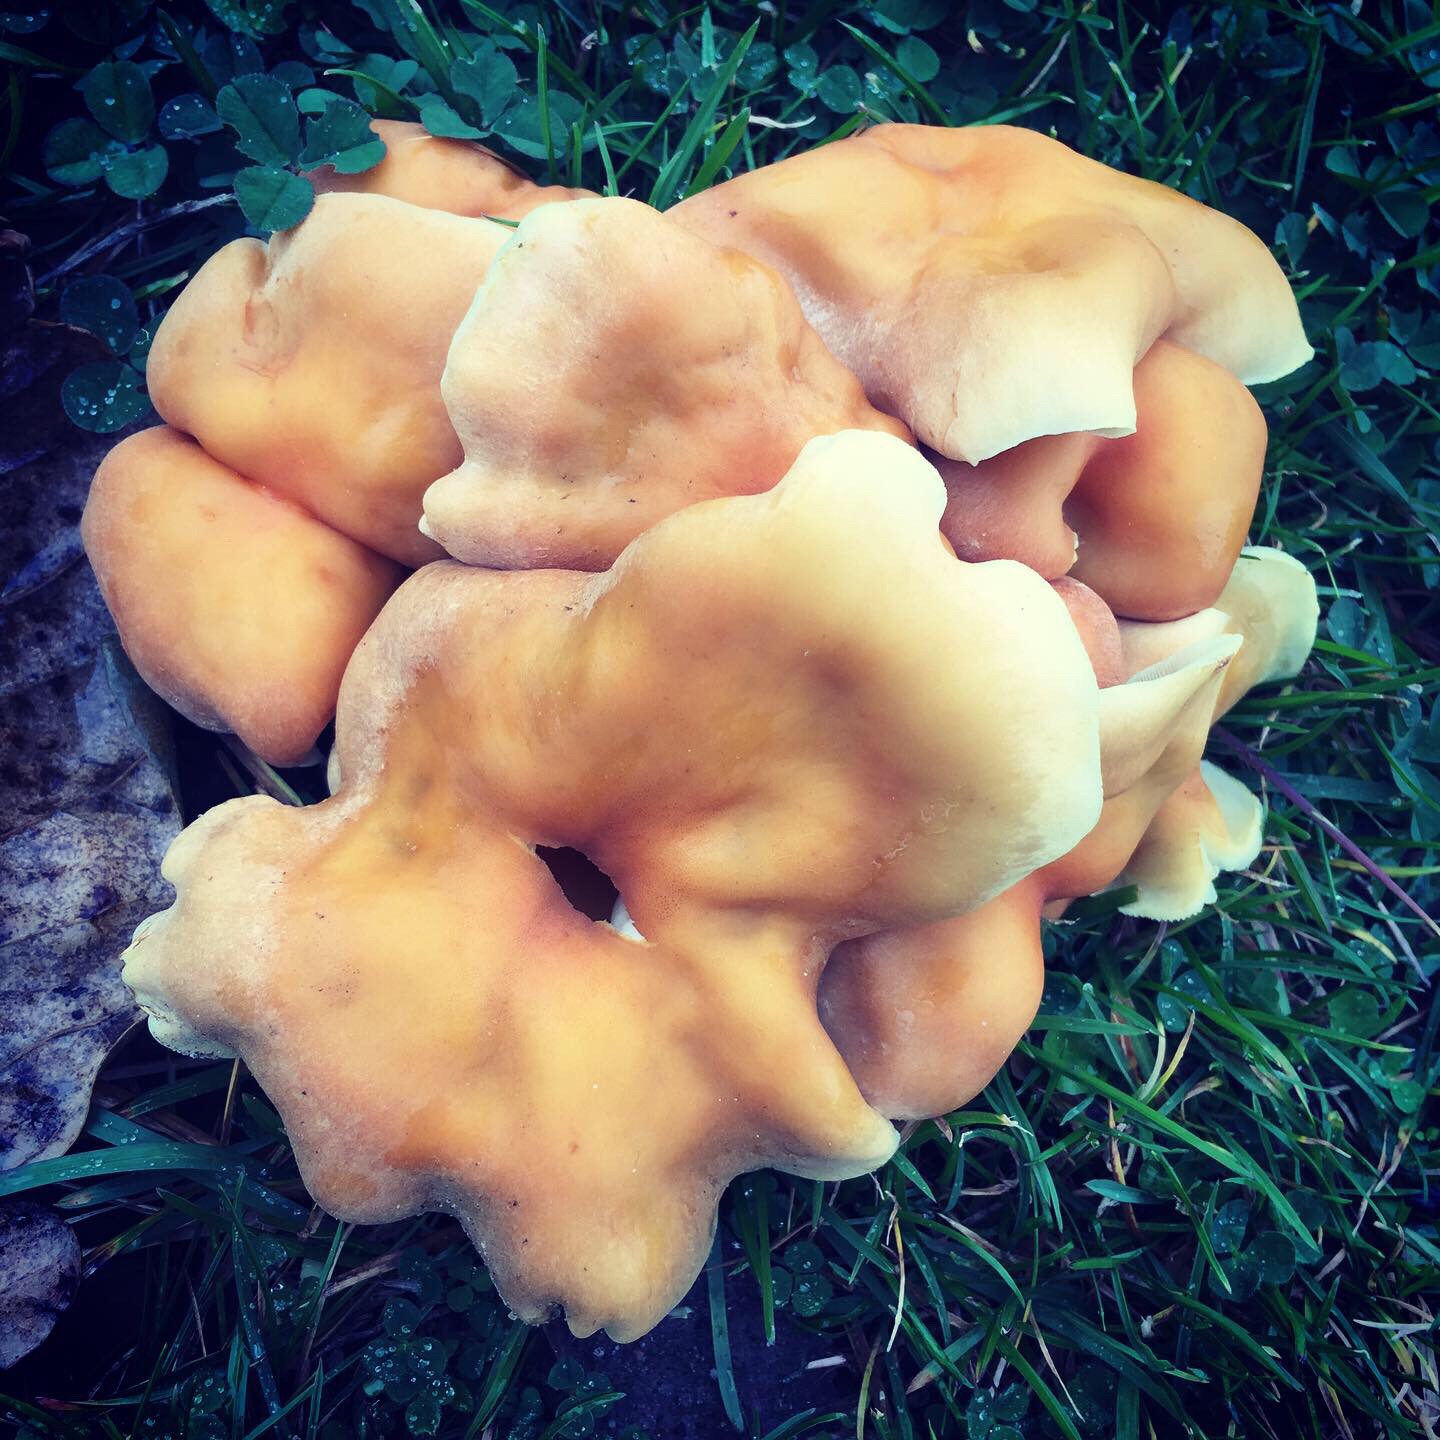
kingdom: Fungi
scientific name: Fungi
